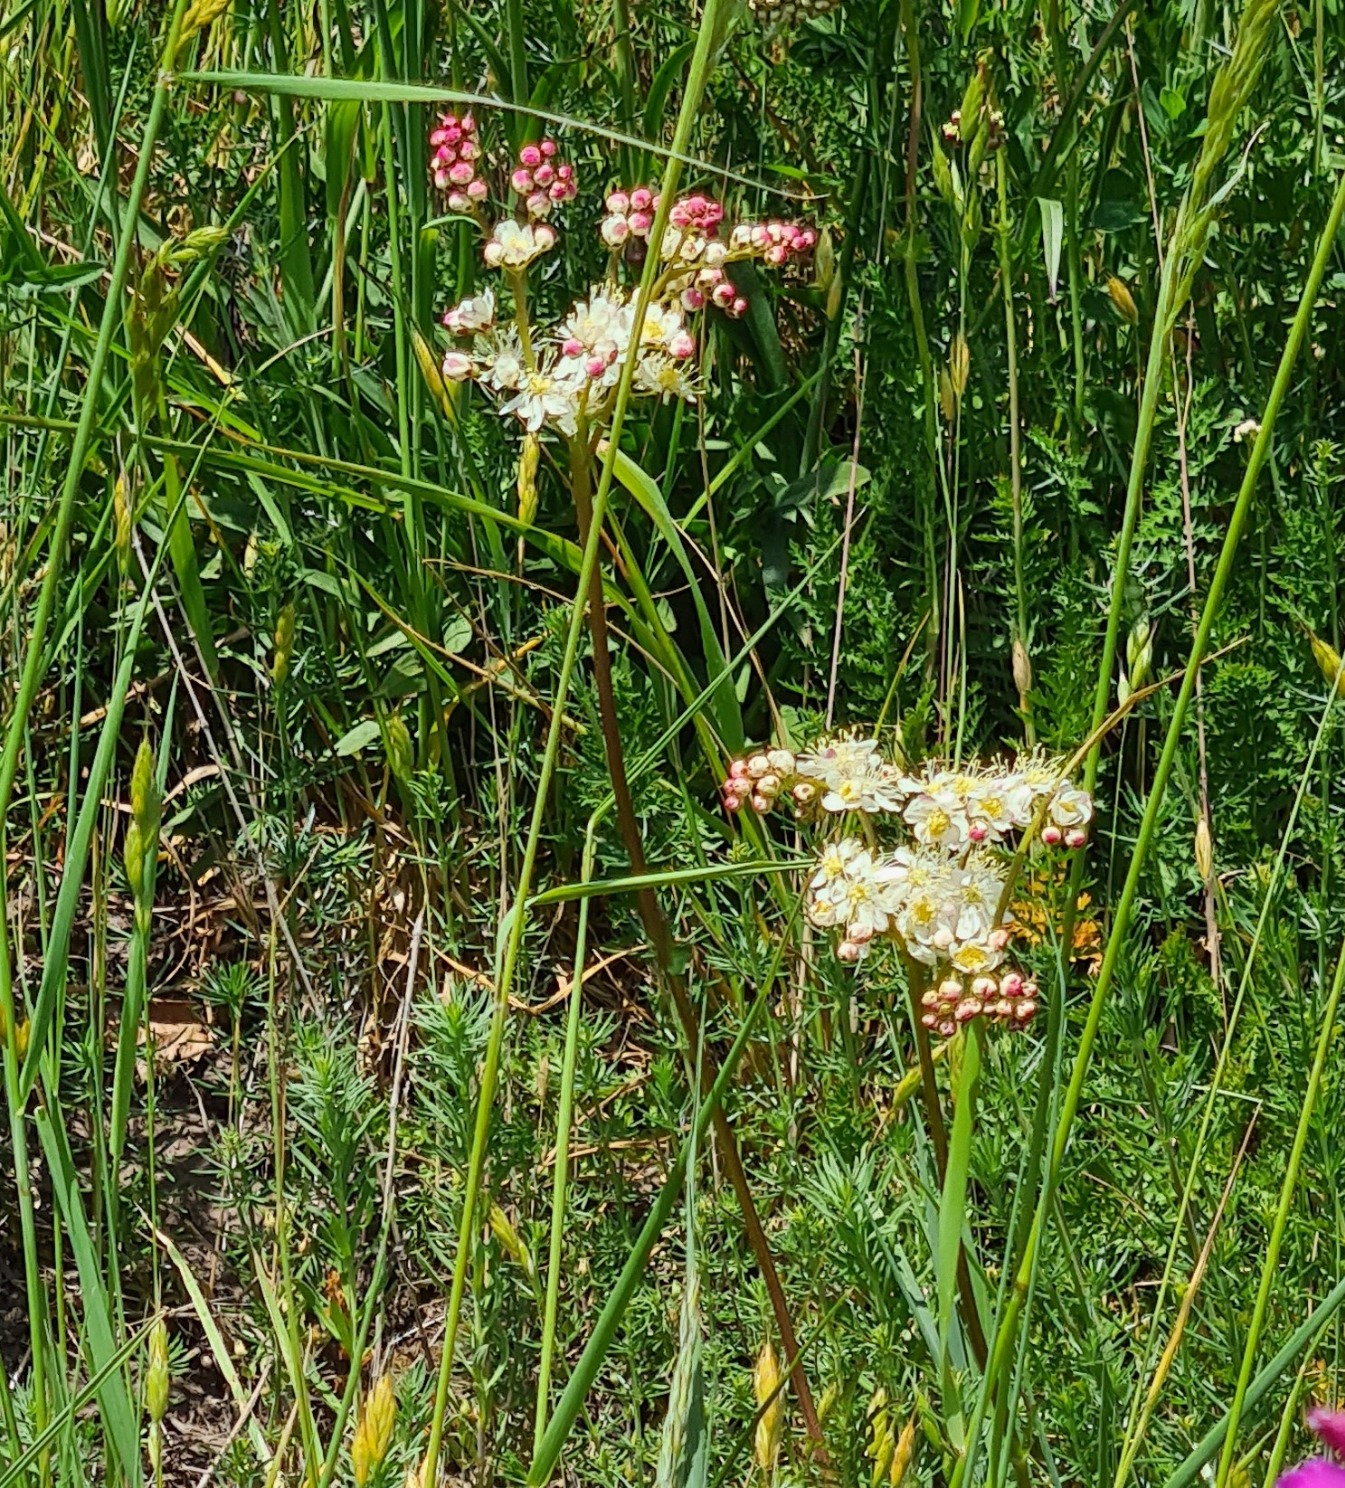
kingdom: Plantae
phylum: Tracheophyta
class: Magnoliopsida
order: Rosales
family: Rosaceae
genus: Filipendula
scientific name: Filipendula vulgaris
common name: Knoldet mjødurt
